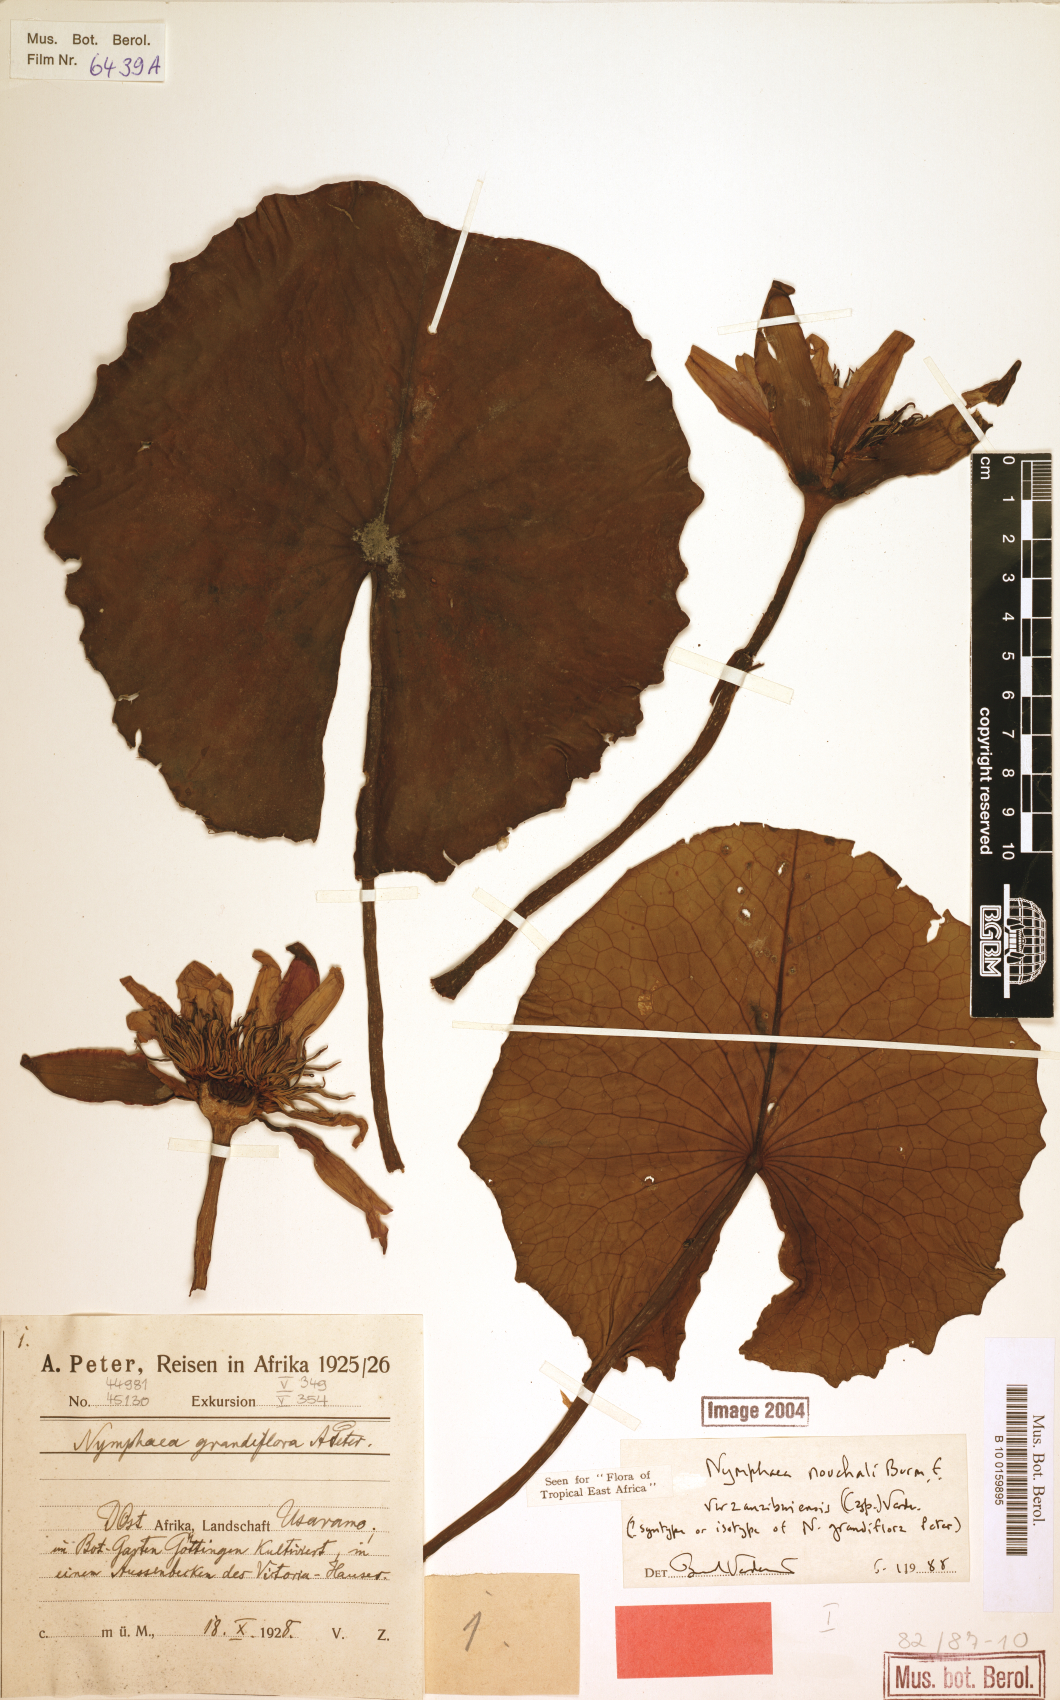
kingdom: Plantae
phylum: Tracheophyta
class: Magnoliopsida
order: Nymphaeales
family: Nymphaeaceae
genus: Nymphaea
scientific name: Nymphaea nouchali
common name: Blue lotus
